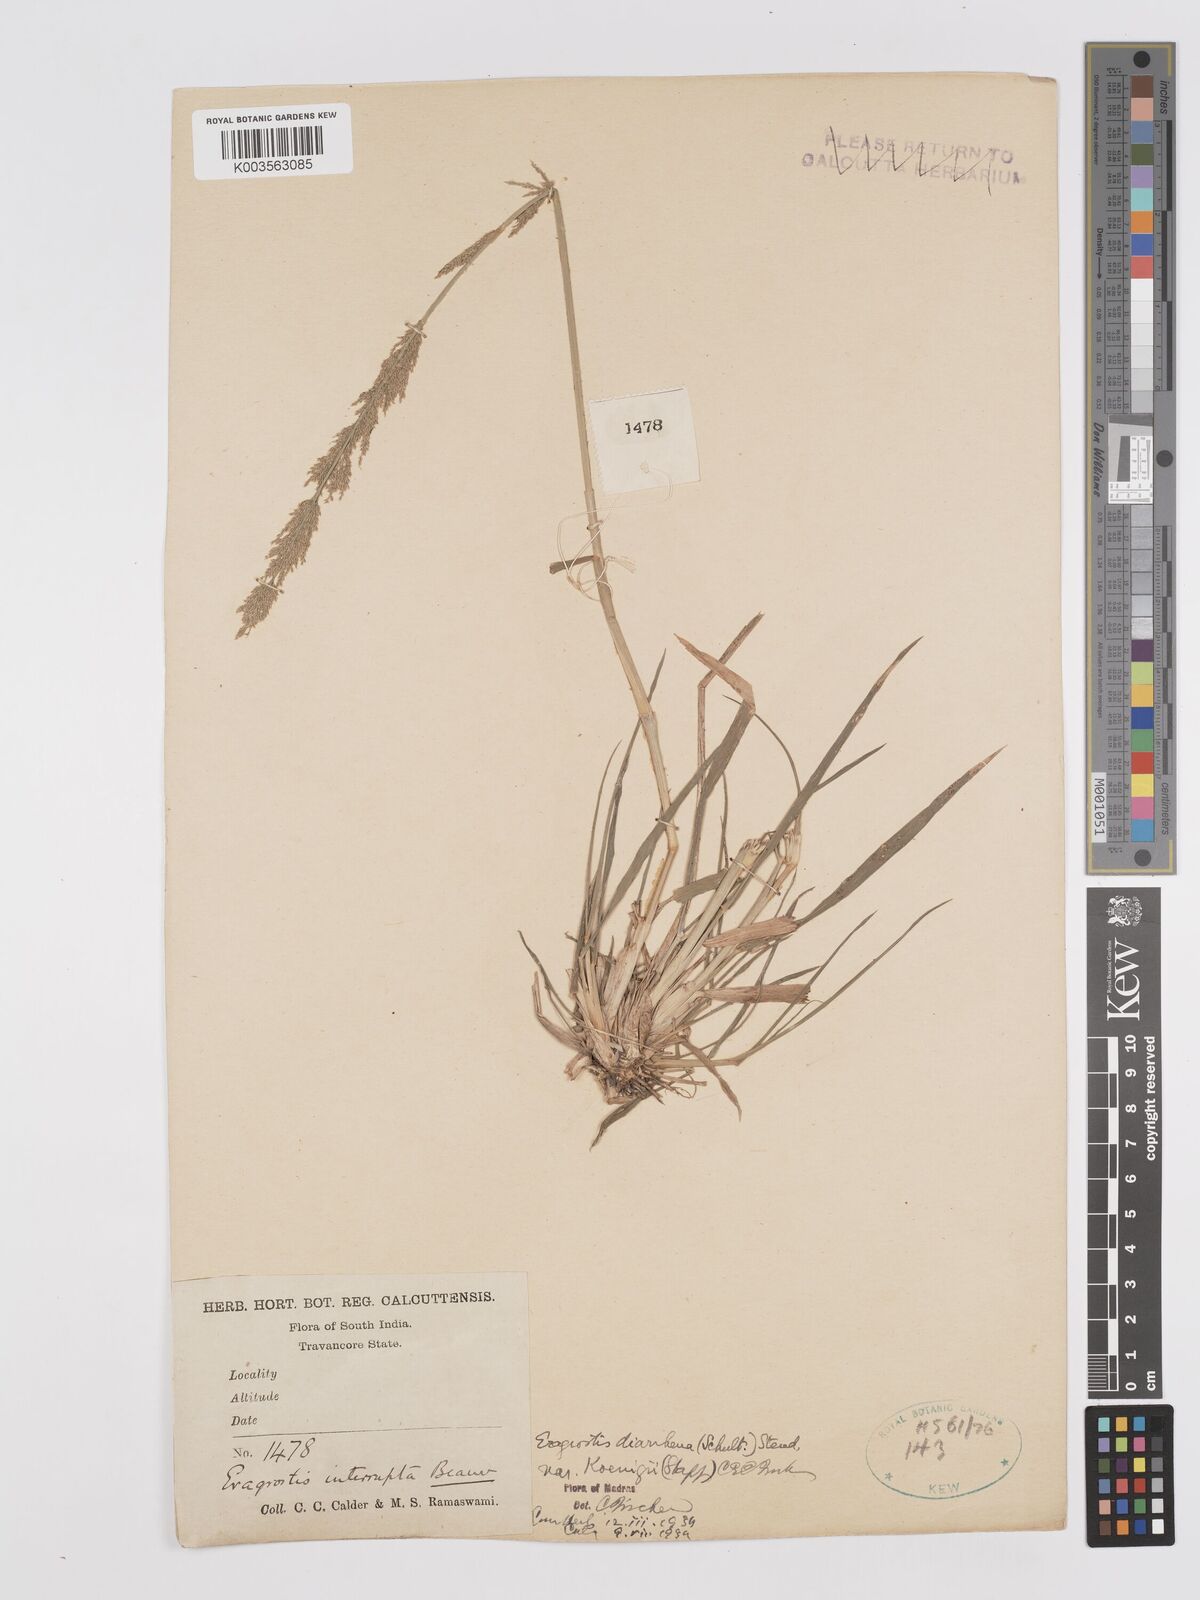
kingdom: Plantae
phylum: Tracheophyta
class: Liliopsida
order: Poales
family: Poaceae
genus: Eragrostis
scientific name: Eragrostis japonica
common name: Pond lovegrass
